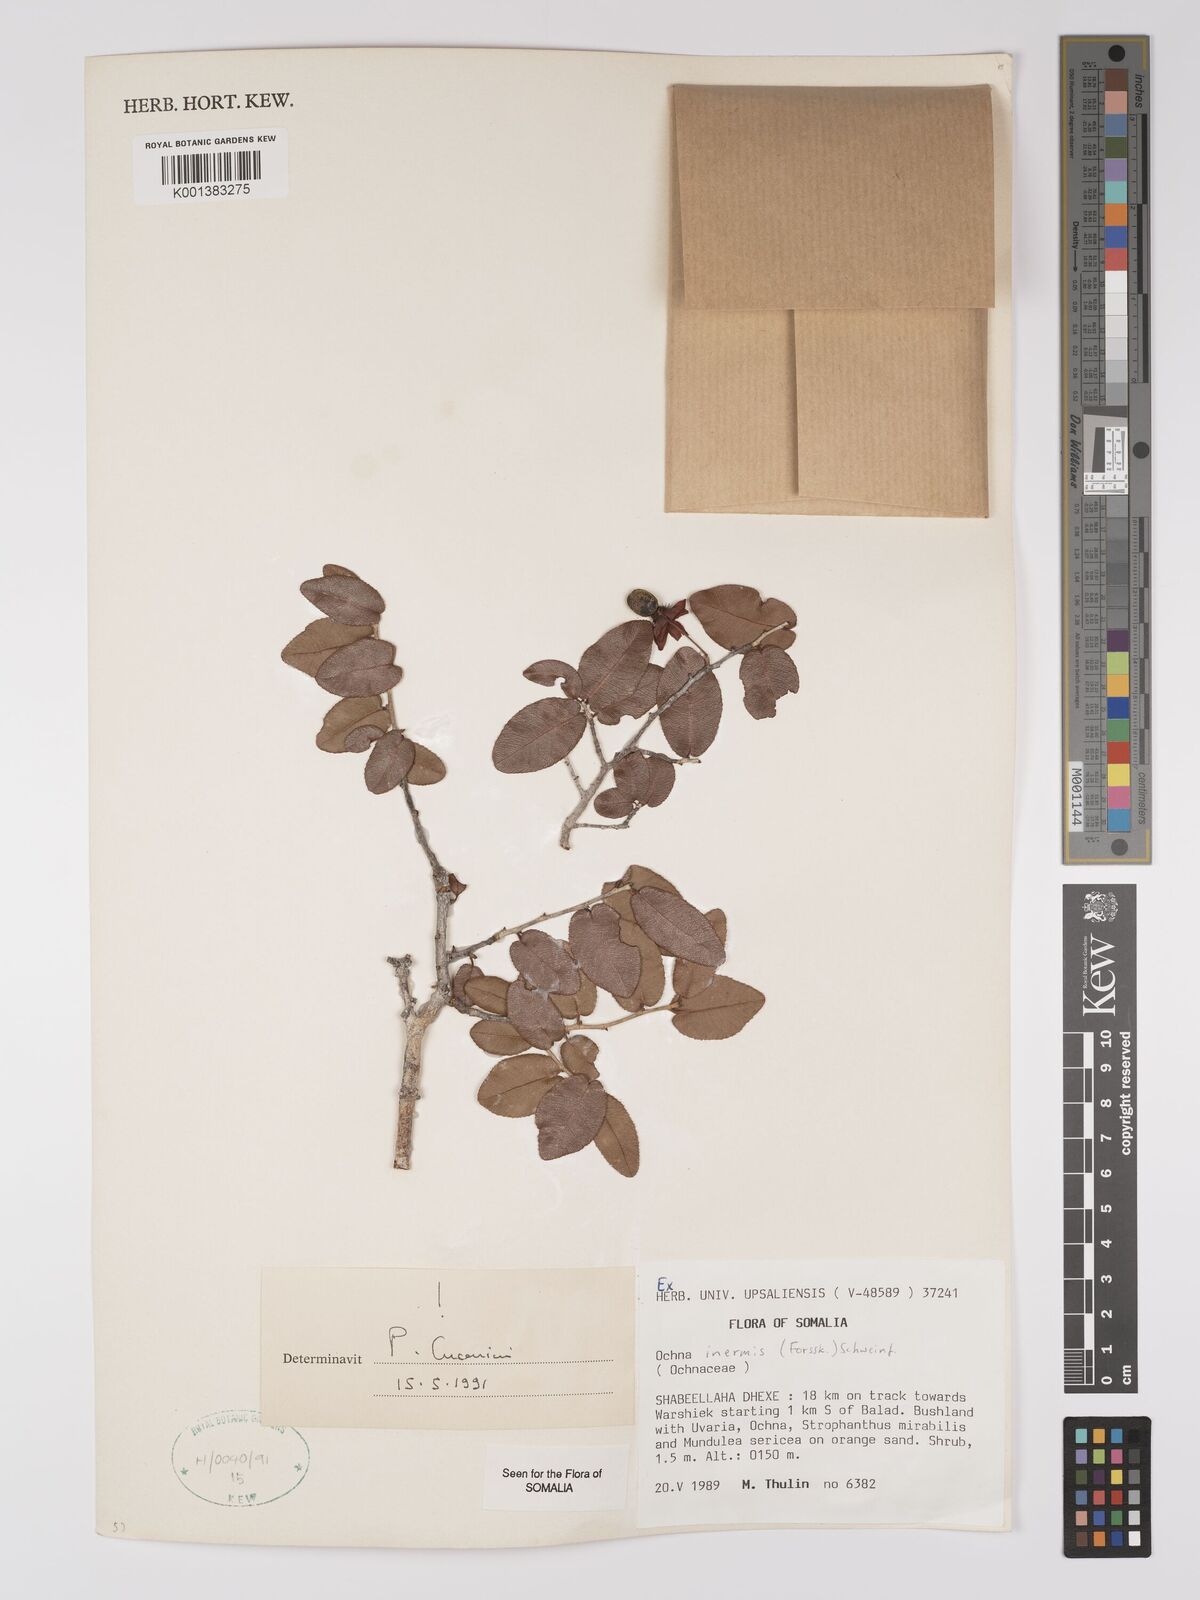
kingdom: Plantae
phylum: Tracheophyta
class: Magnoliopsida
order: Malpighiales
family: Ochnaceae
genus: Ochna
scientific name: Ochna inermis
